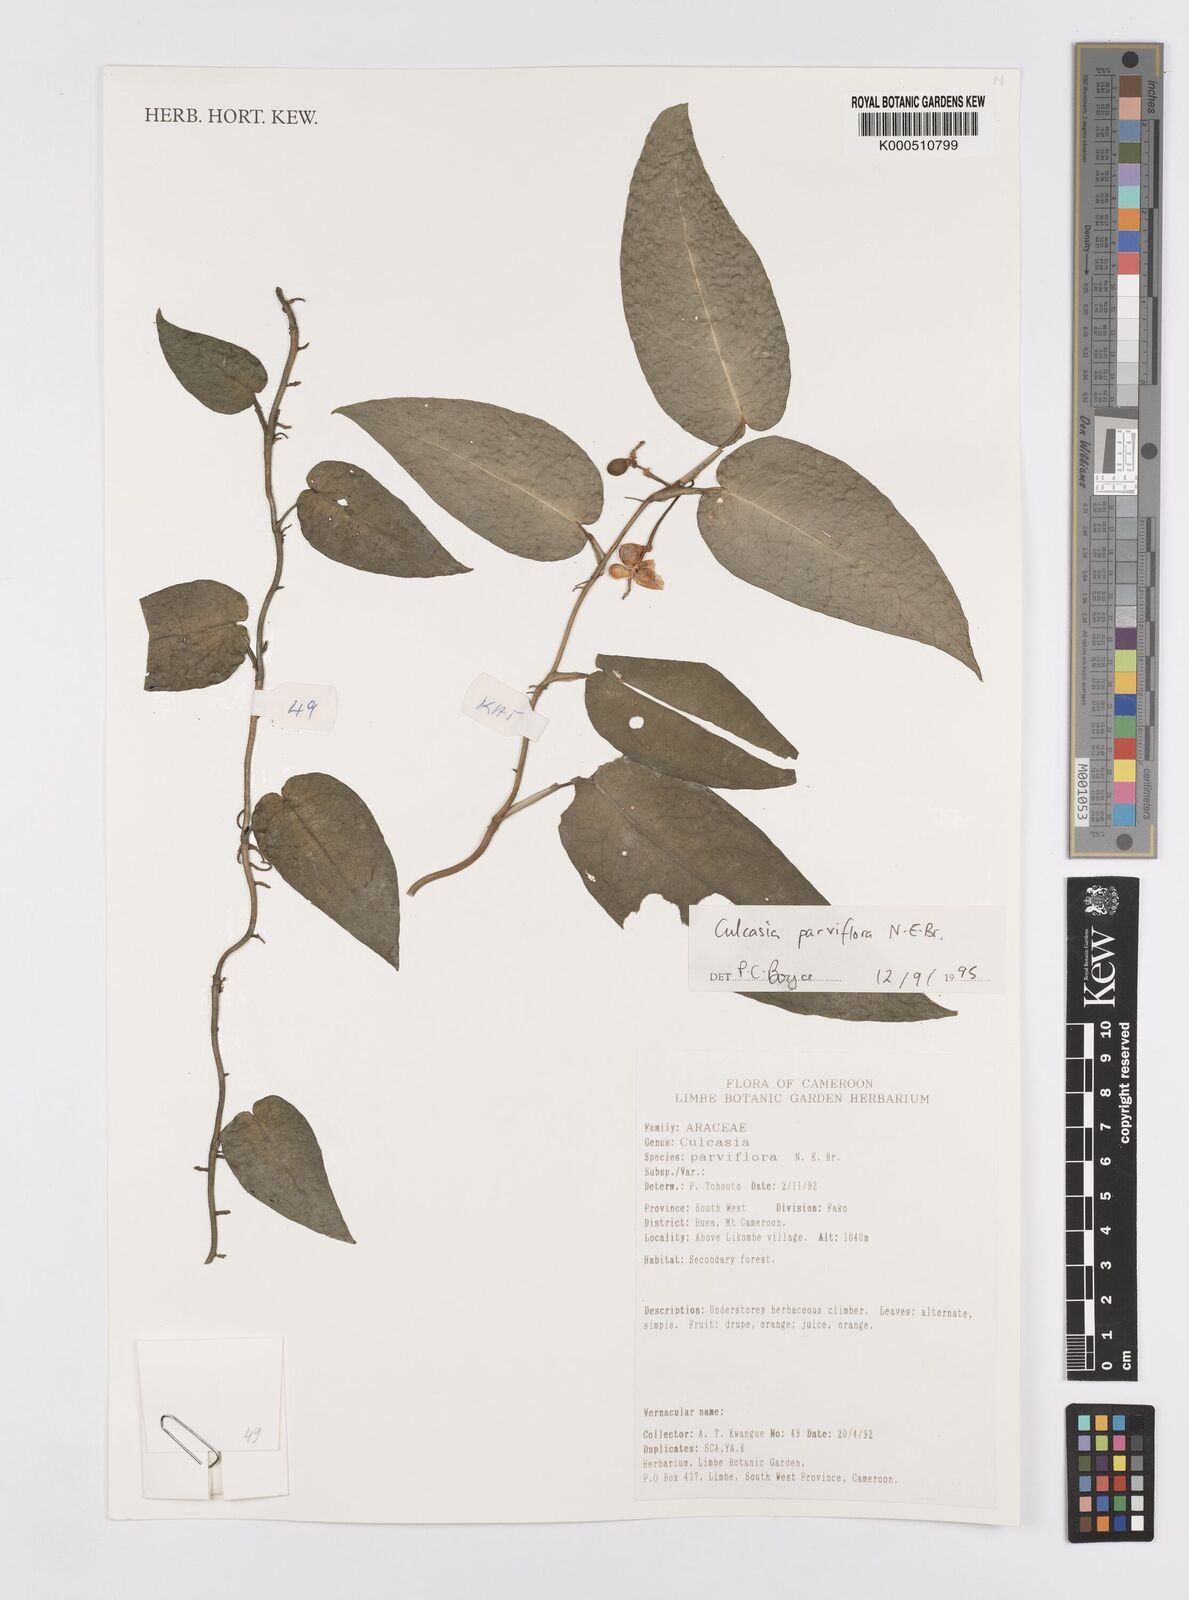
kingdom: Plantae
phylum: Tracheophyta
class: Liliopsida
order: Alismatales
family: Araceae
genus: Culcasia
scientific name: Culcasia parviflora
